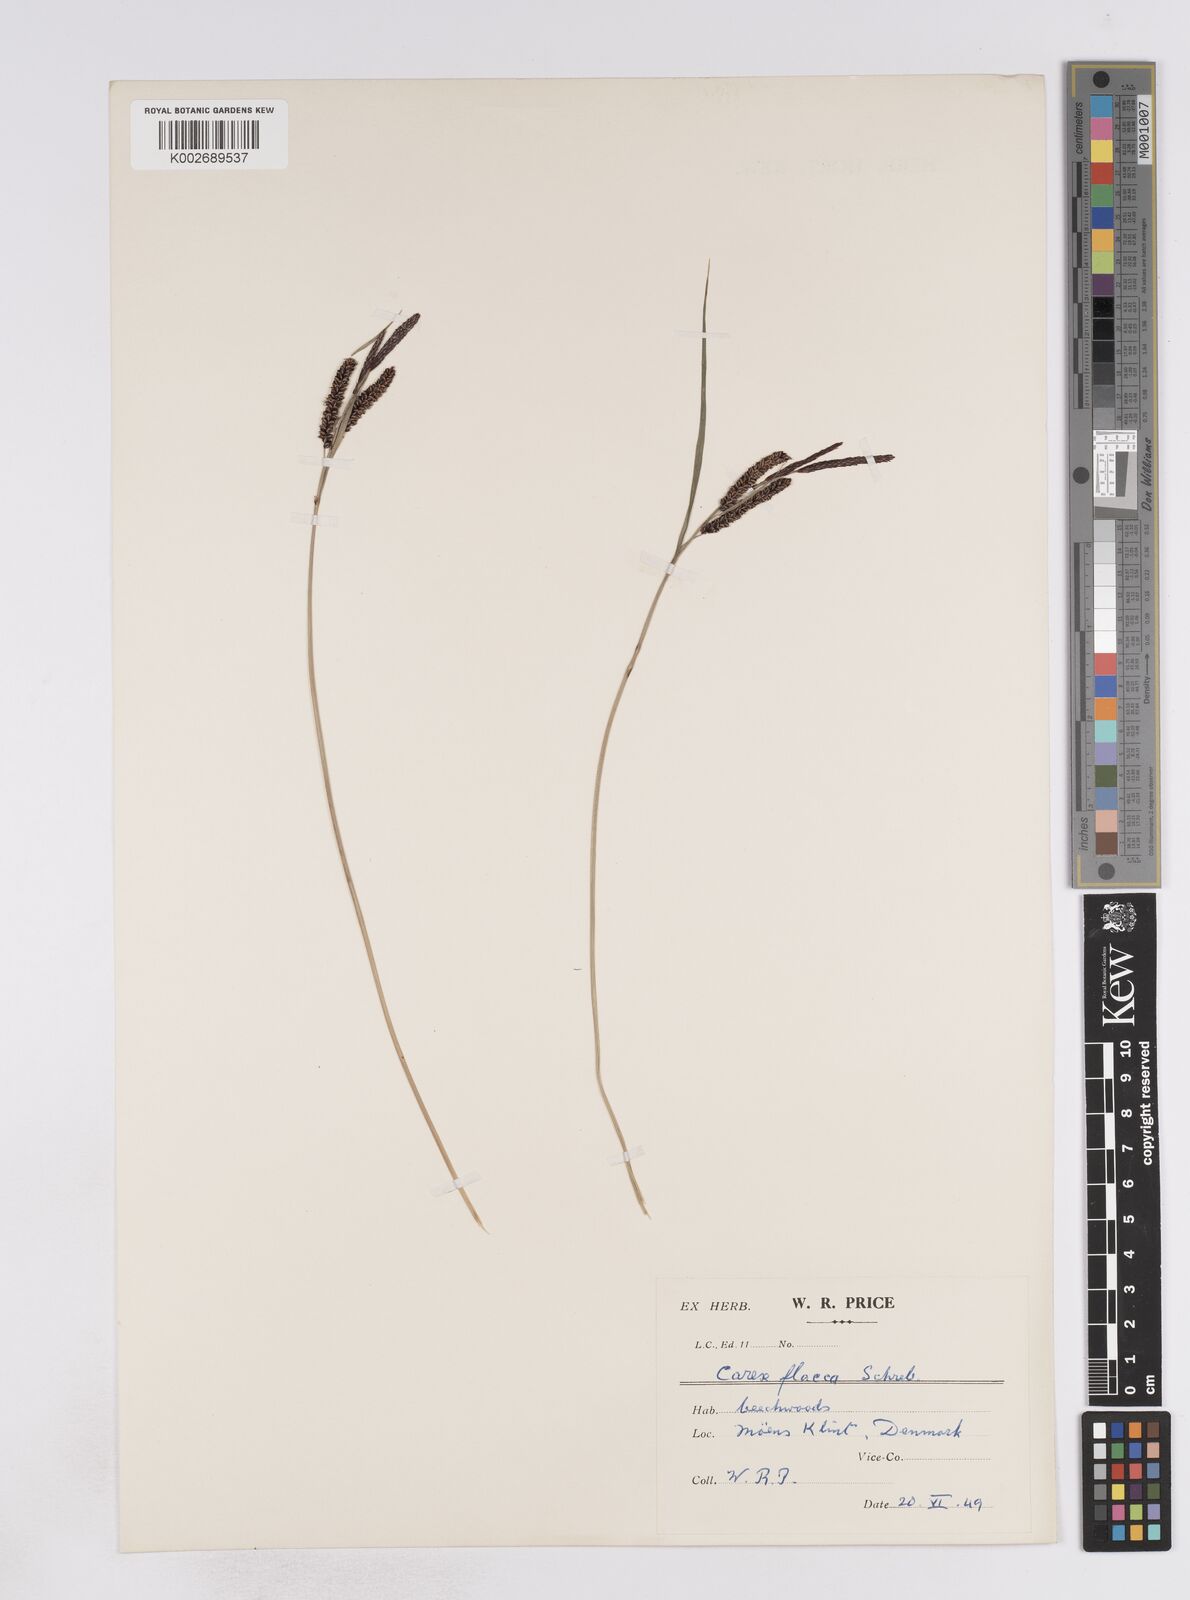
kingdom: Plantae
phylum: Tracheophyta
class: Liliopsida
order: Poales
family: Cyperaceae
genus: Carex
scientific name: Carex flacca
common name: Glaucous sedge
